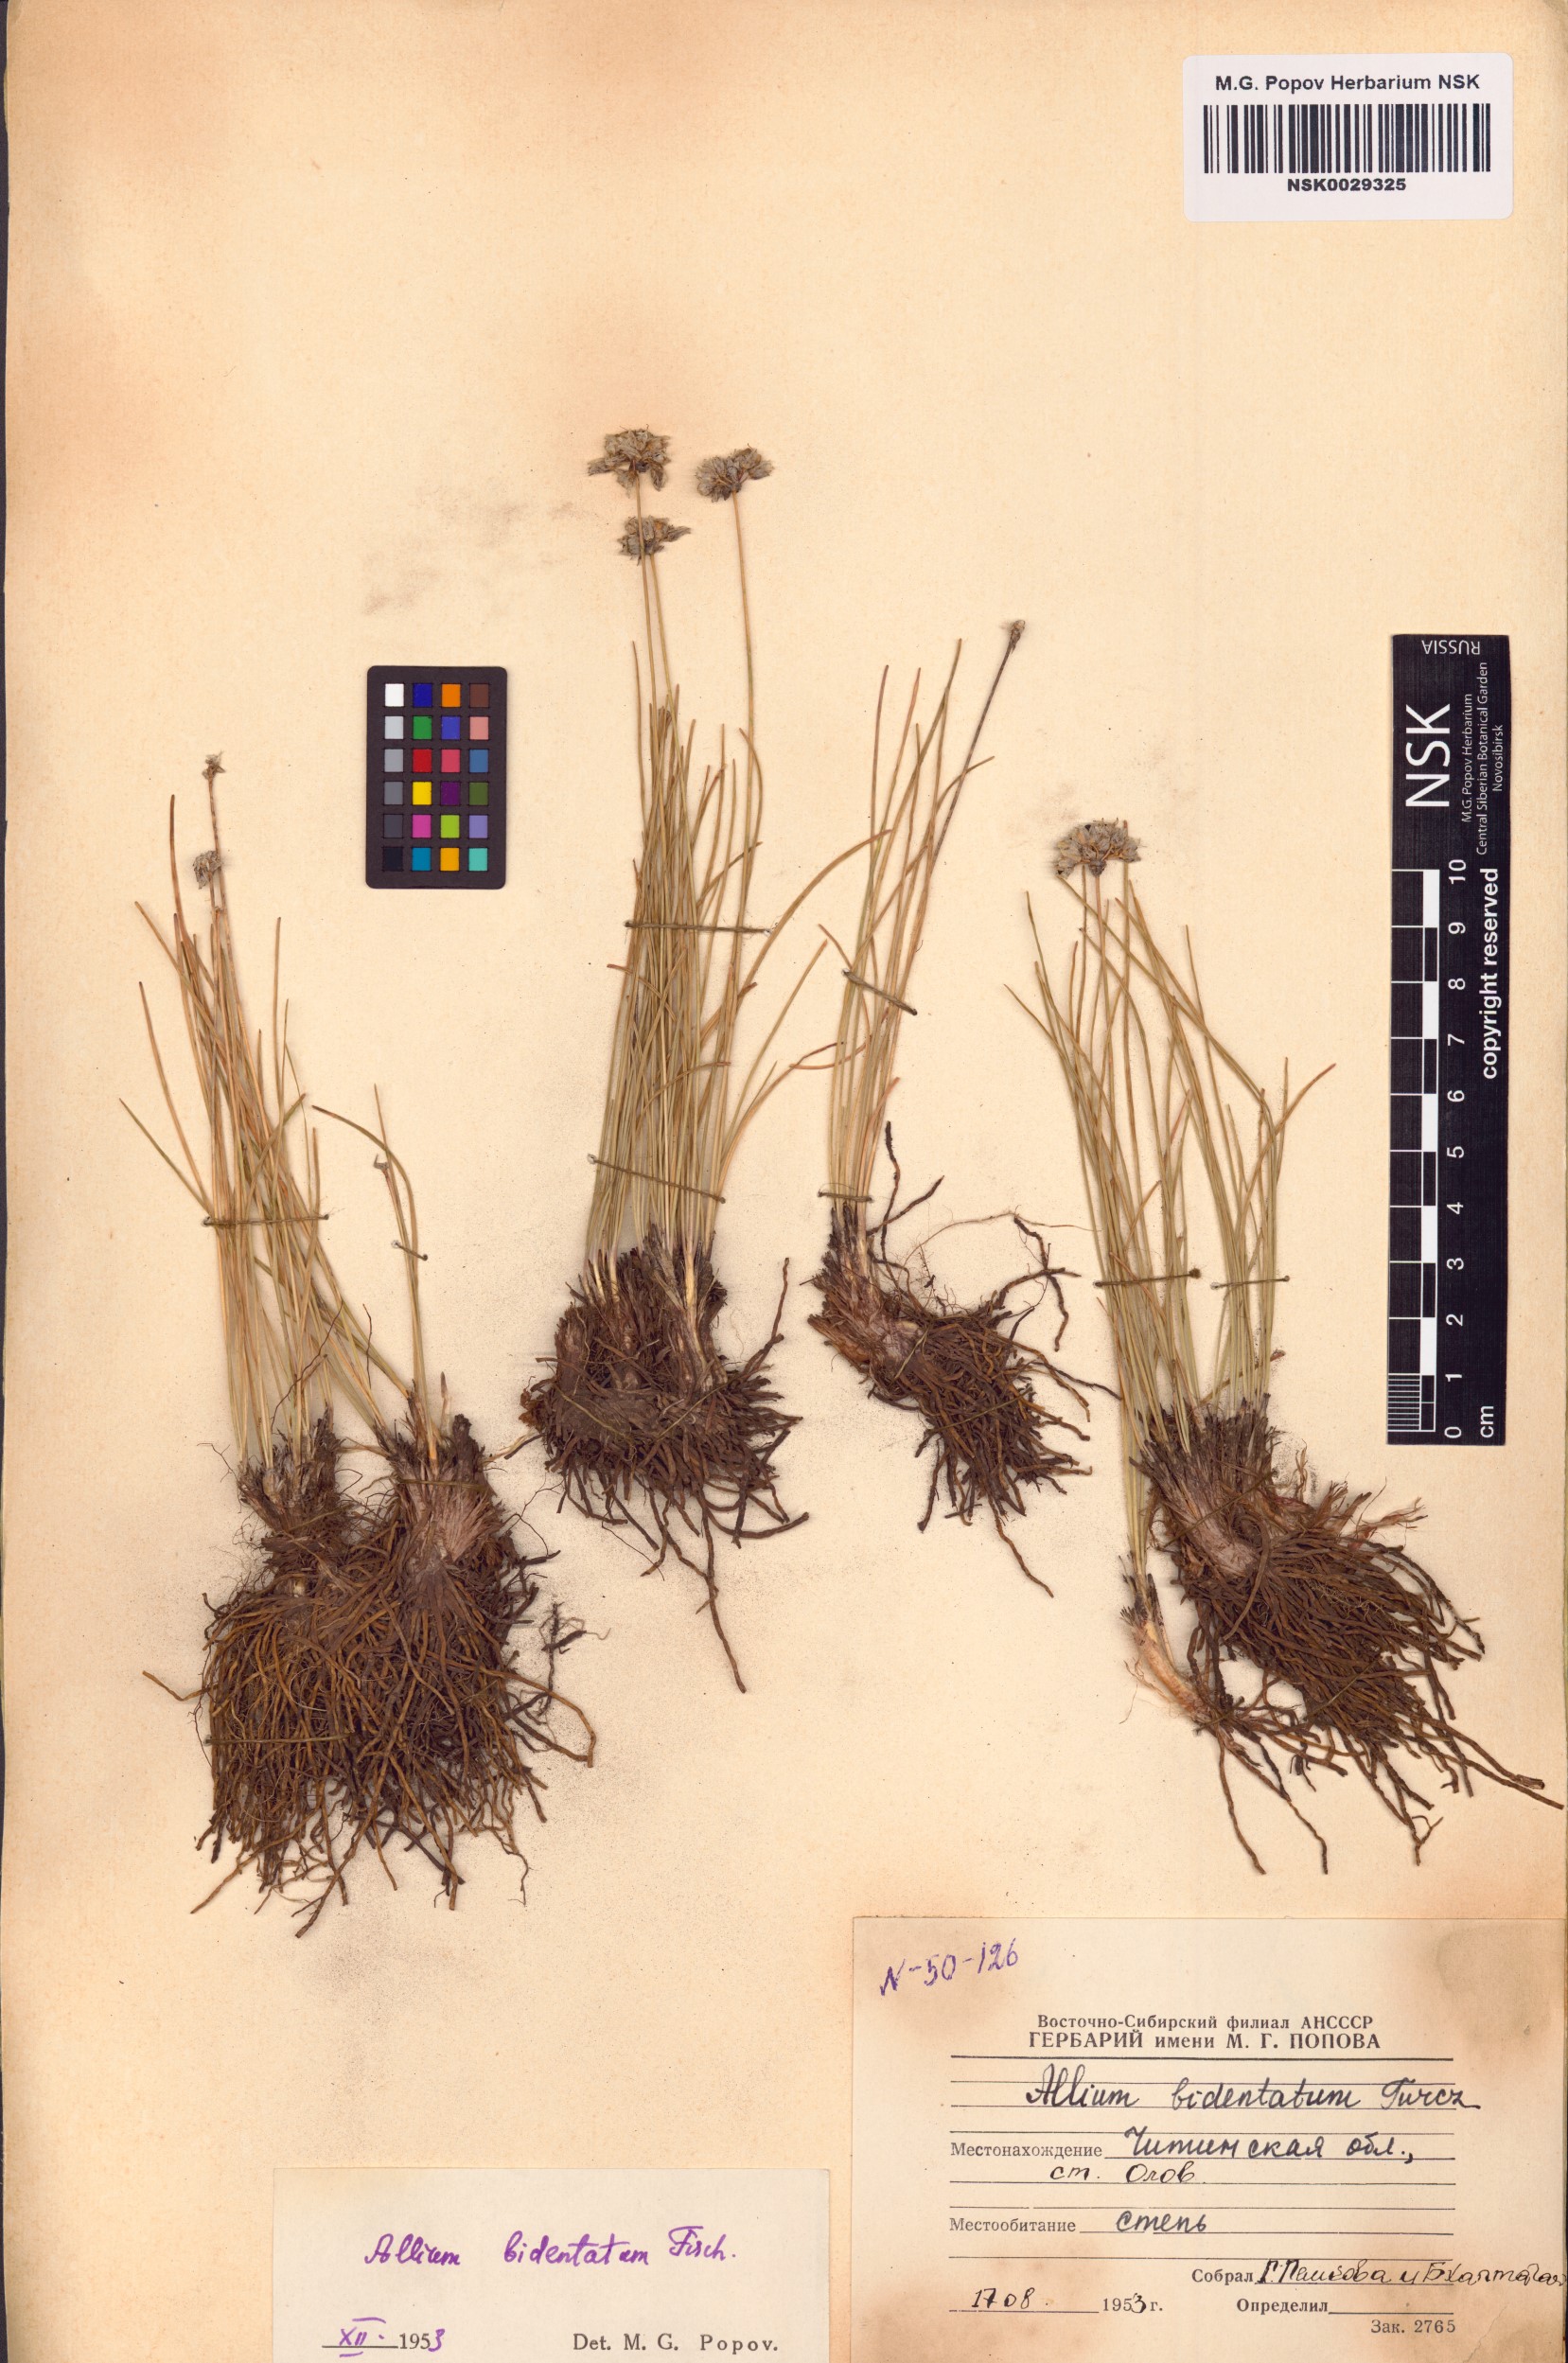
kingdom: Plantae
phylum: Tracheophyta
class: Liliopsida
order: Asparagales
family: Amaryllidaceae
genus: Allium
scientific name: Allium bidentatum
